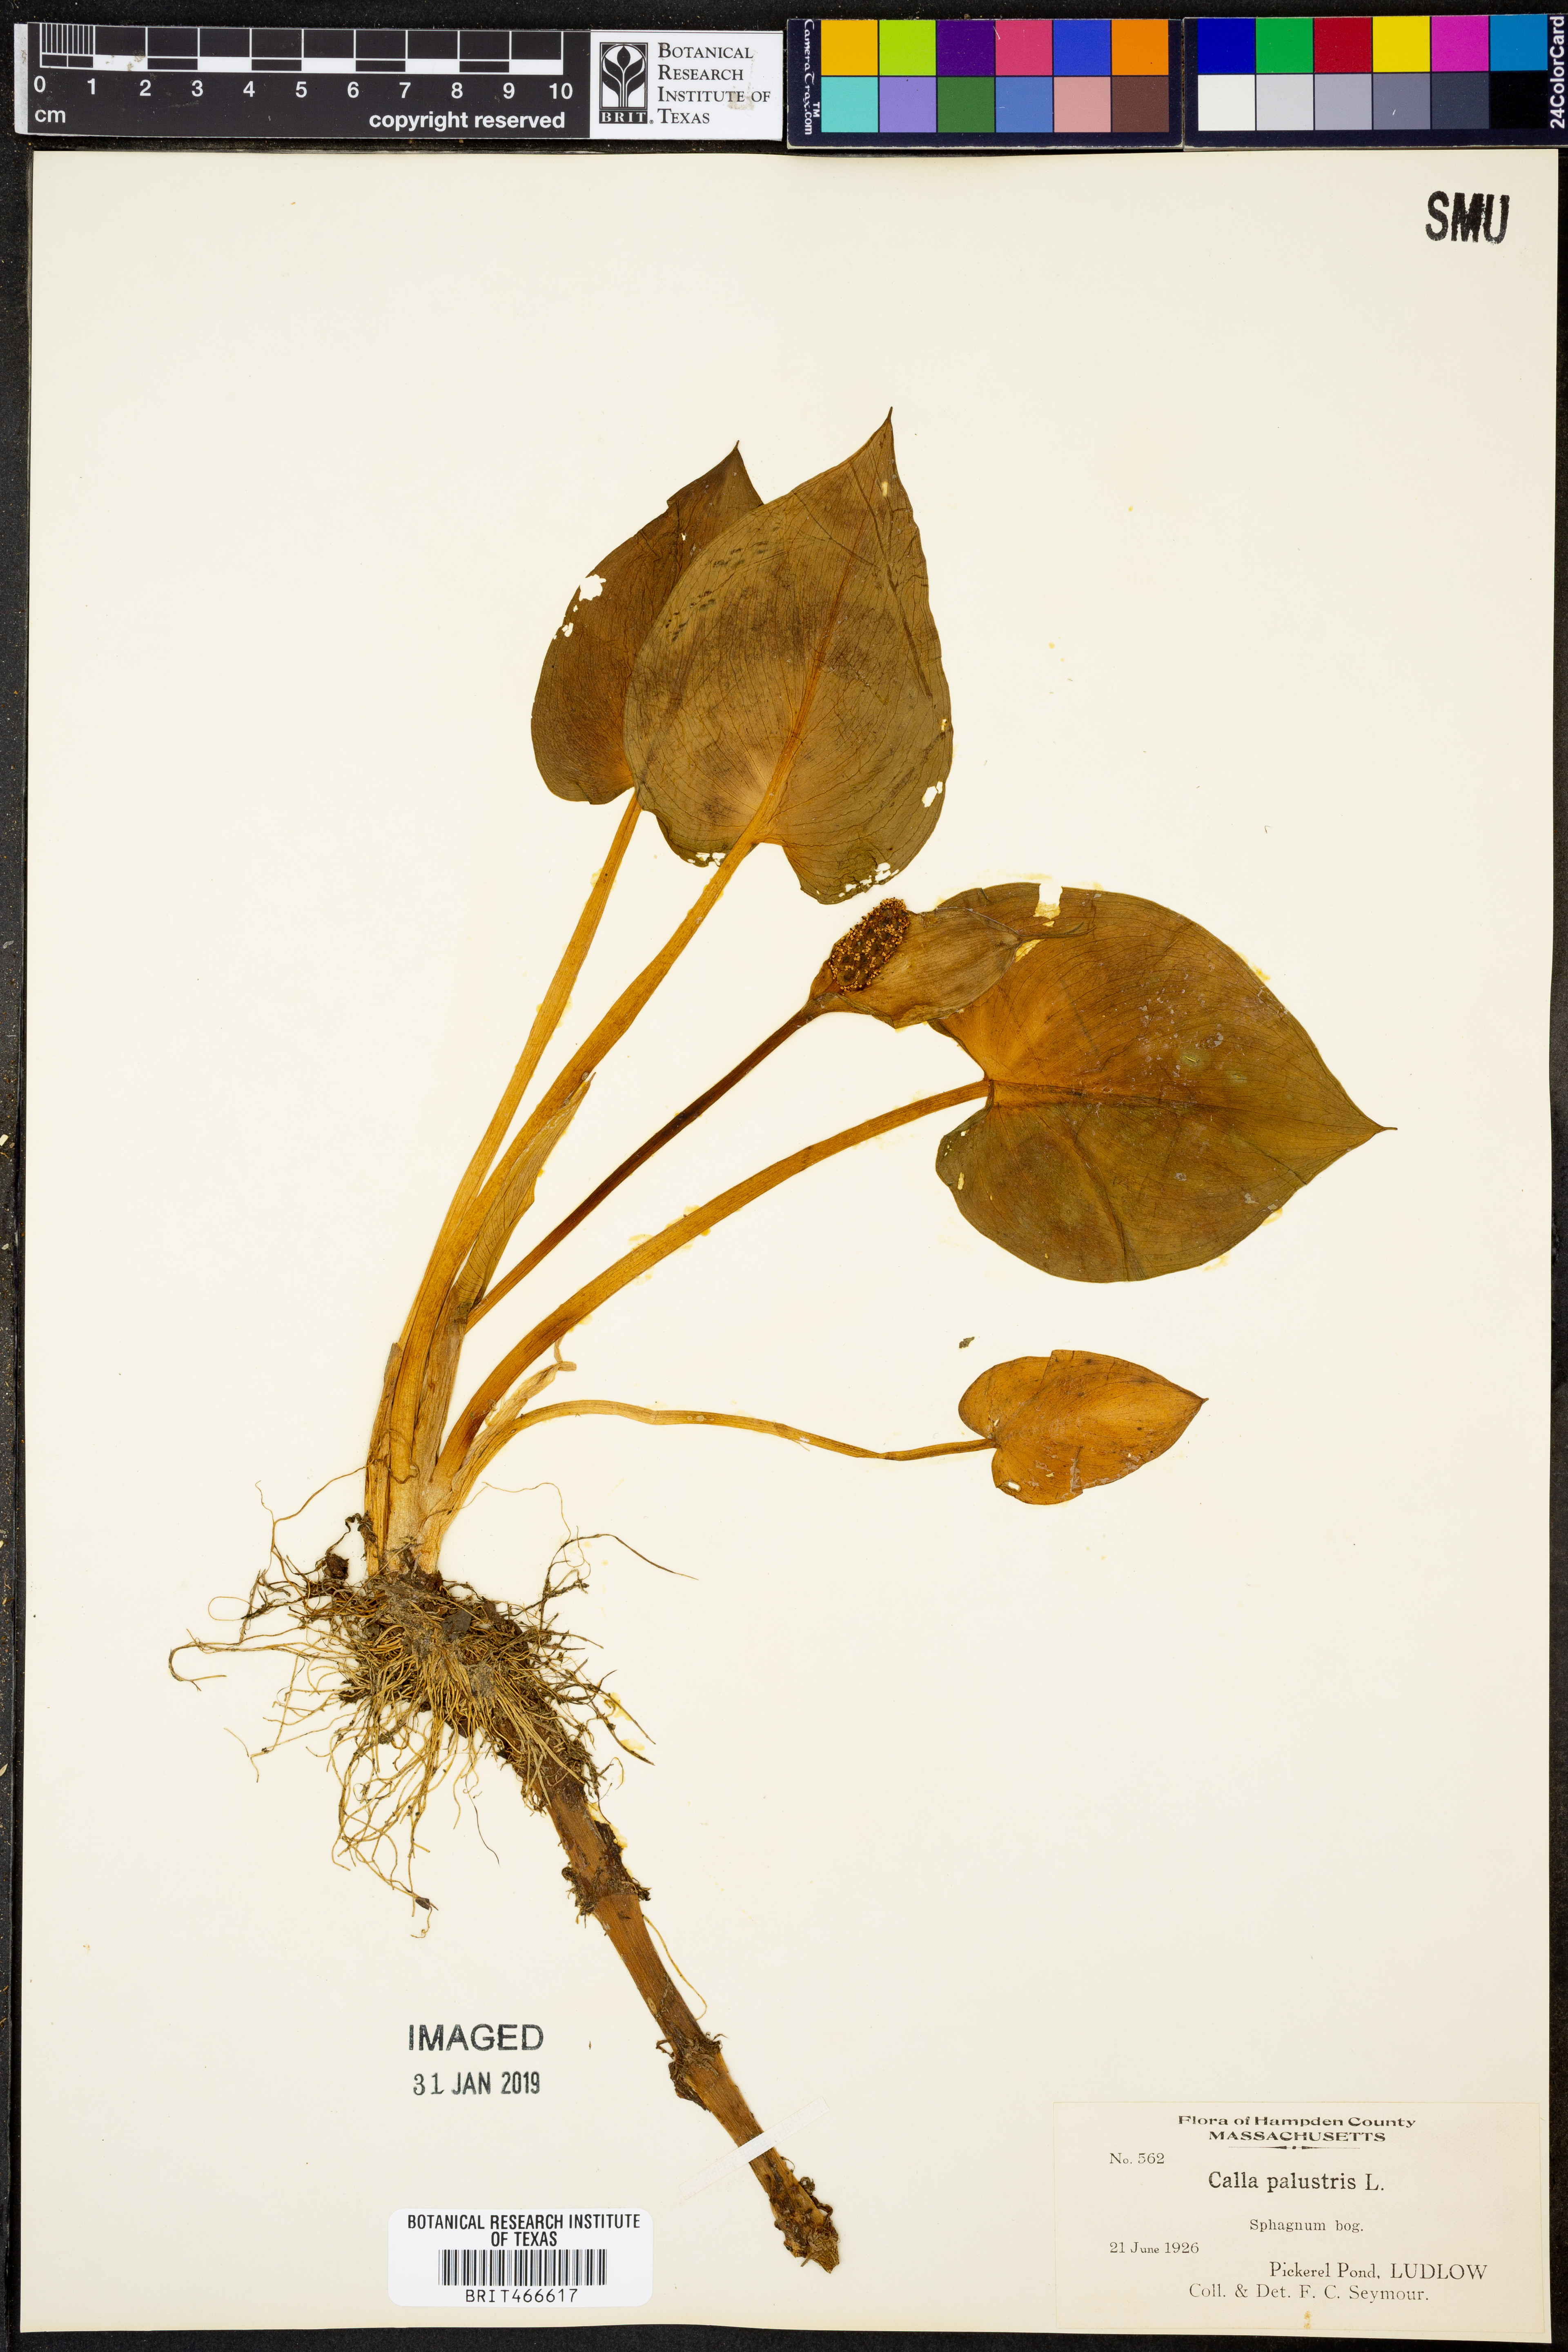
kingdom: Plantae
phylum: Tracheophyta
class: Liliopsida
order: Alismatales
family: Araceae
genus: Calla
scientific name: Calla palustris
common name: Bog arum
